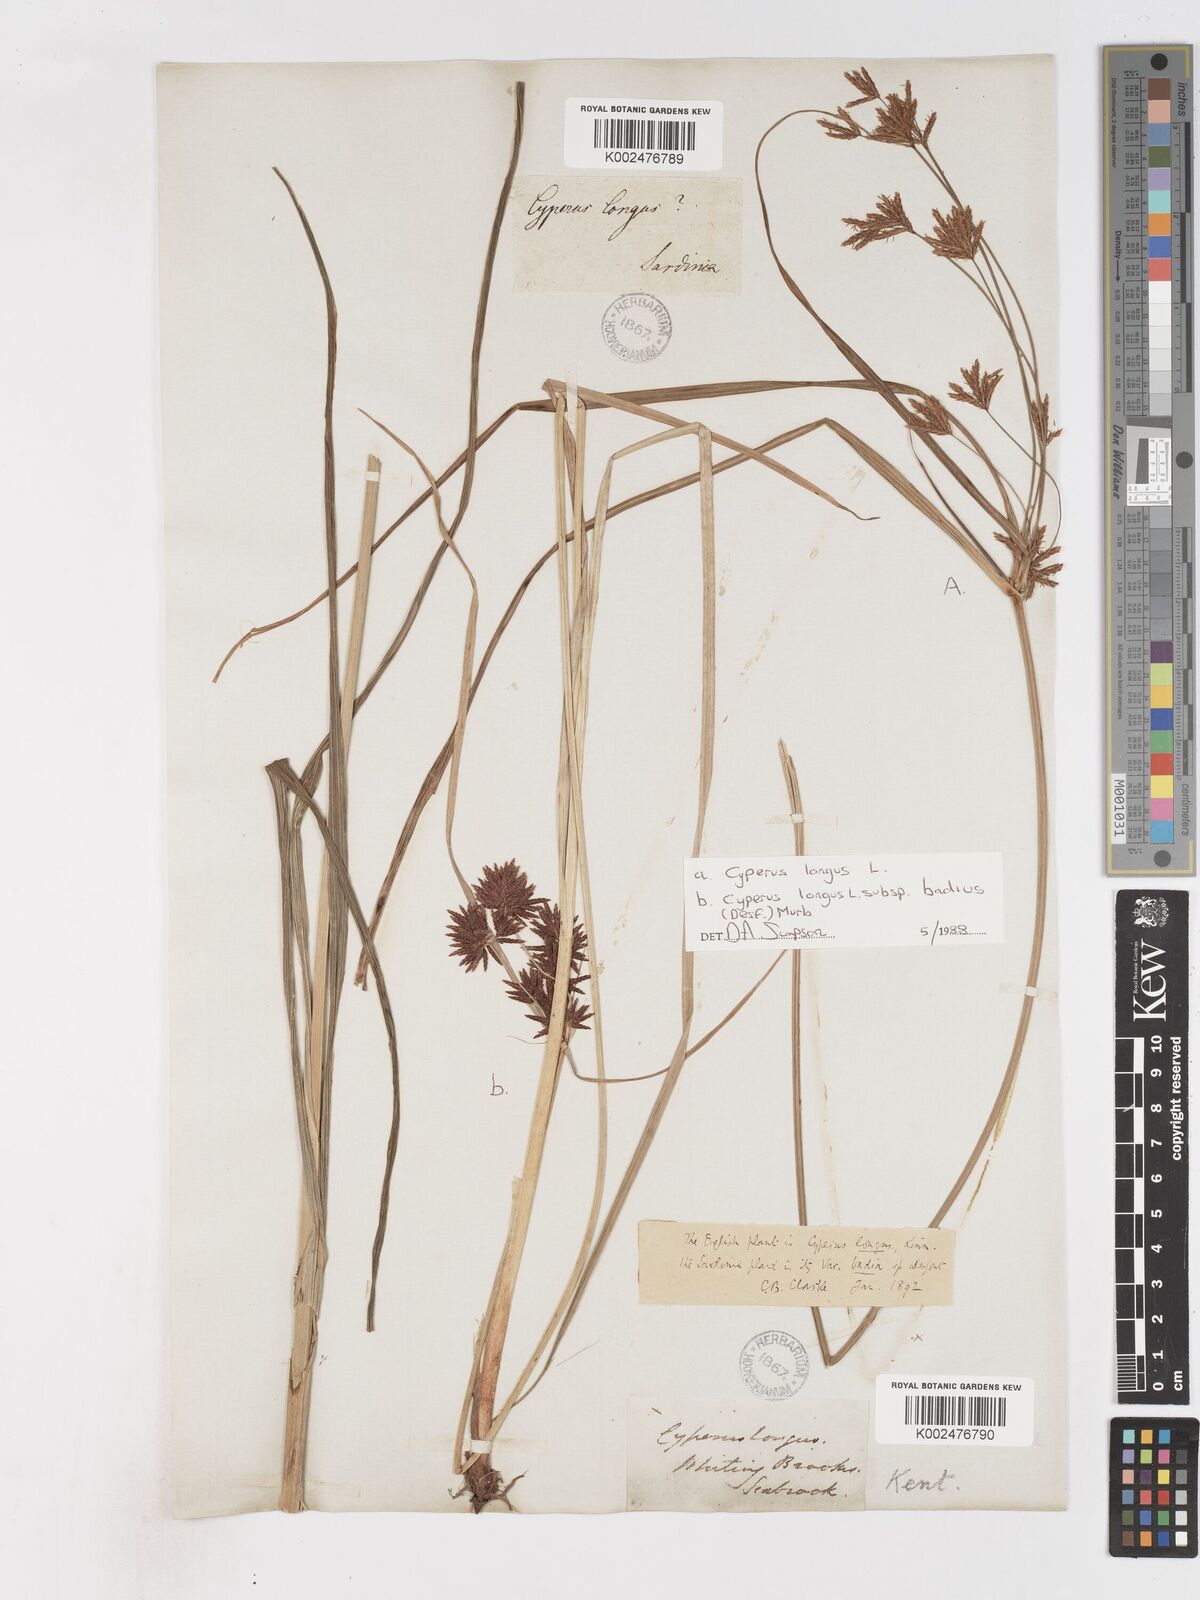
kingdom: Plantae
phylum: Tracheophyta
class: Liliopsida
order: Poales
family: Cyperaceae
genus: Cyperus
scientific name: Cyperus longus
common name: Galingale
